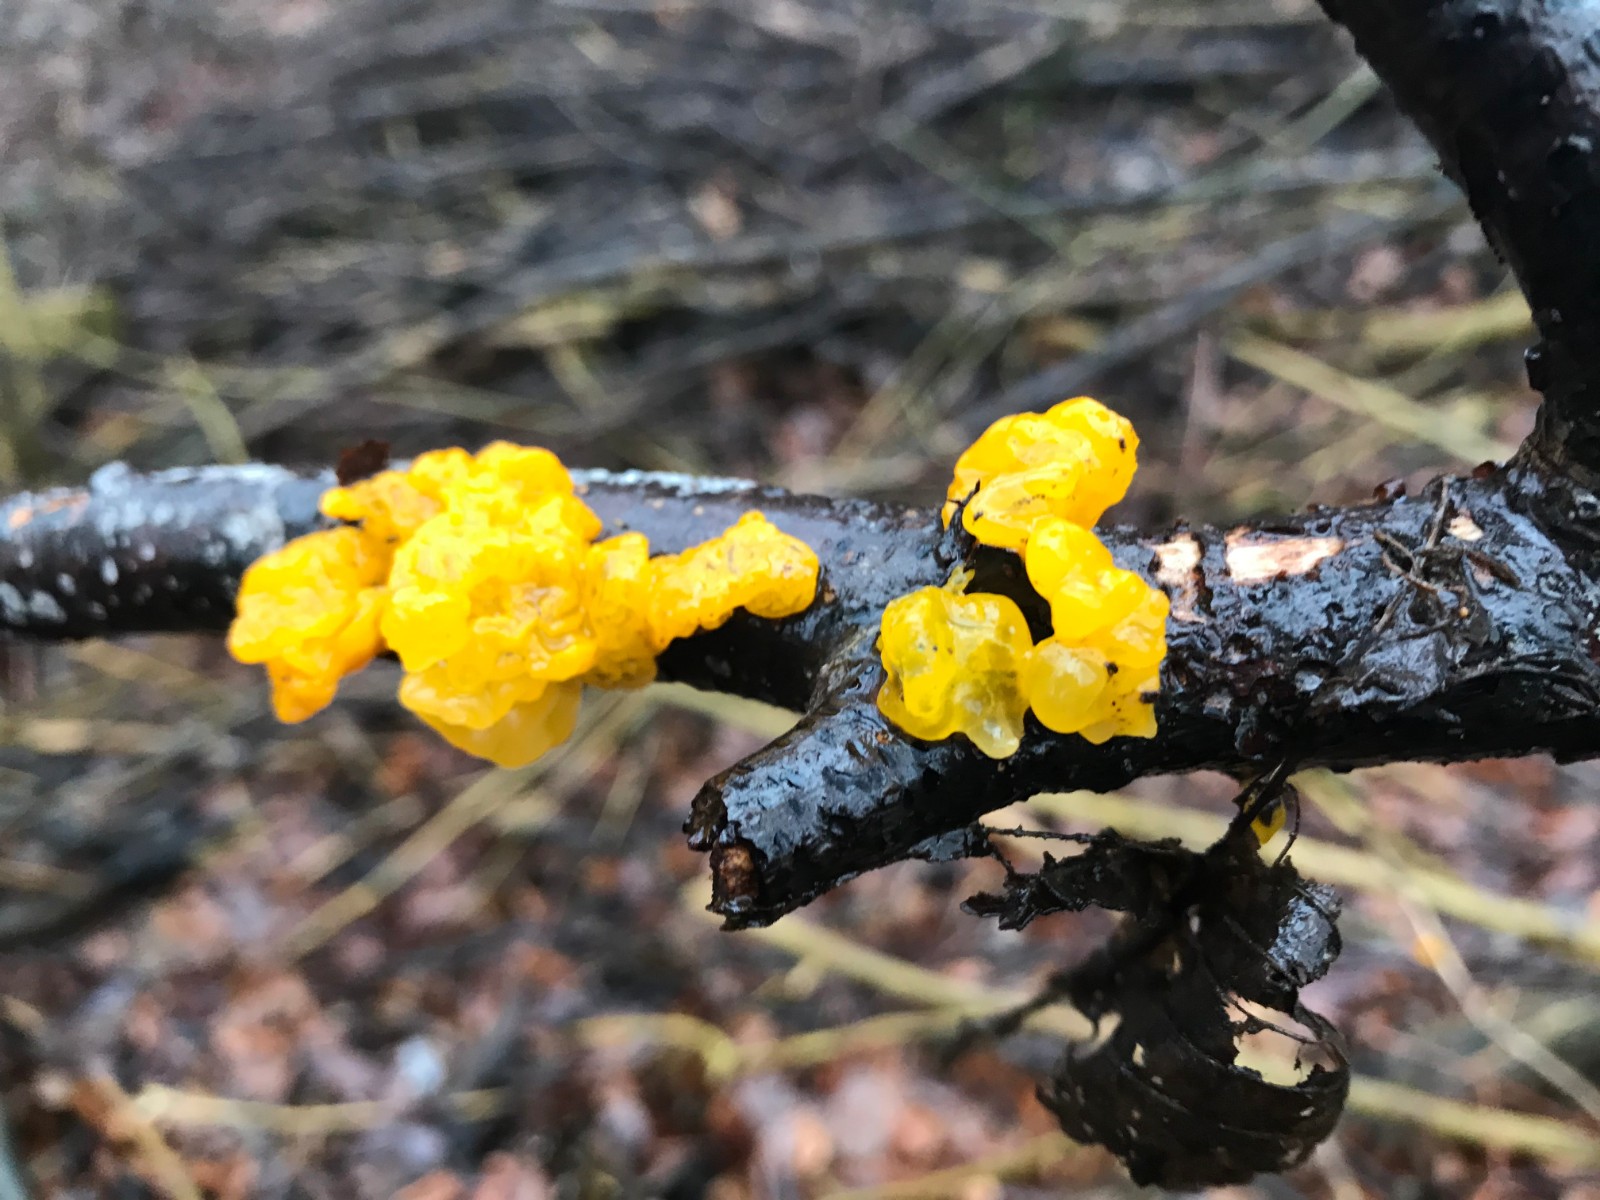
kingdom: Fungi
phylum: Basidiomycota
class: Tremellomycetes
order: Tremellales
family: Tremellaceae
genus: Tremella
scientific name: Tremella mesenterica
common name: gul bævresvamp
